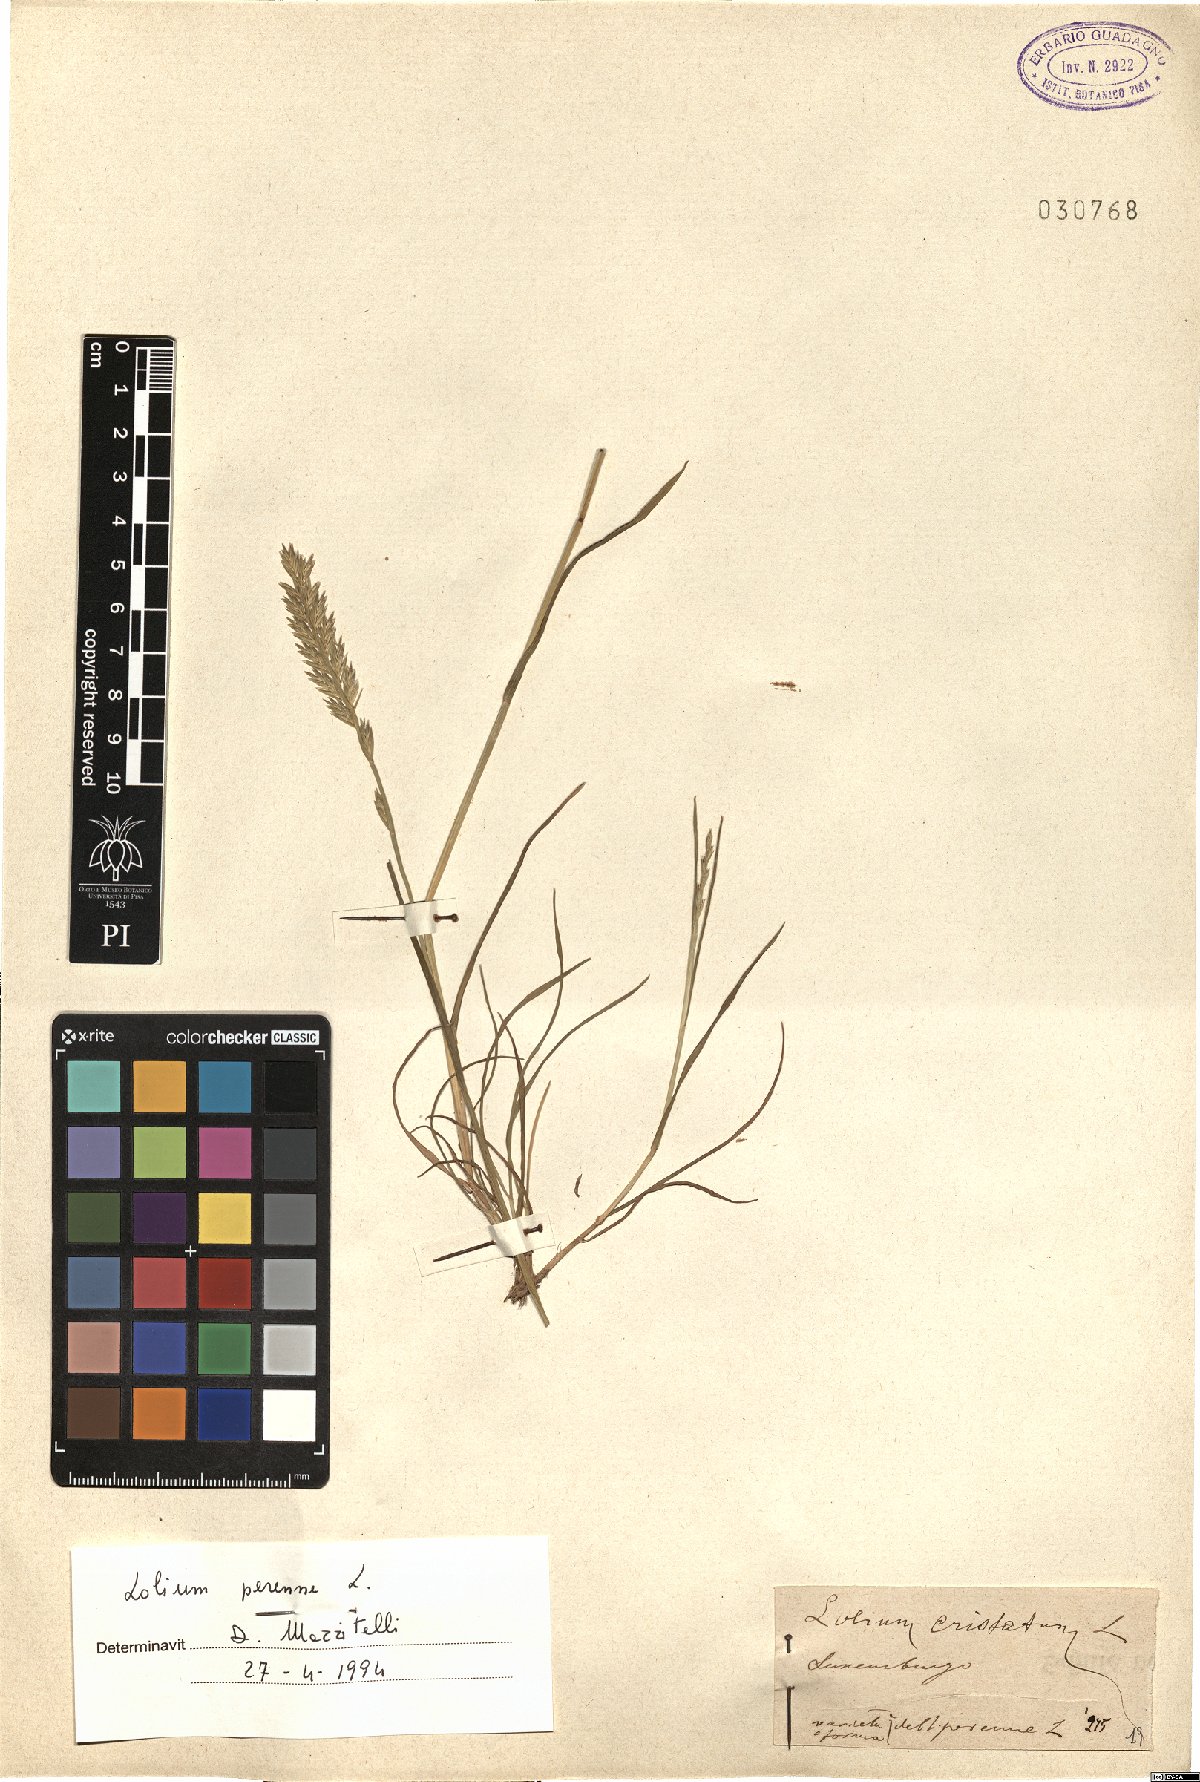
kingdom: Plantae
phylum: Tracheophyta
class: Liliopsida
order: Poales
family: Poaceae
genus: Lolium
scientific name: Lolium perenne
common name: Perennial ryegrass
